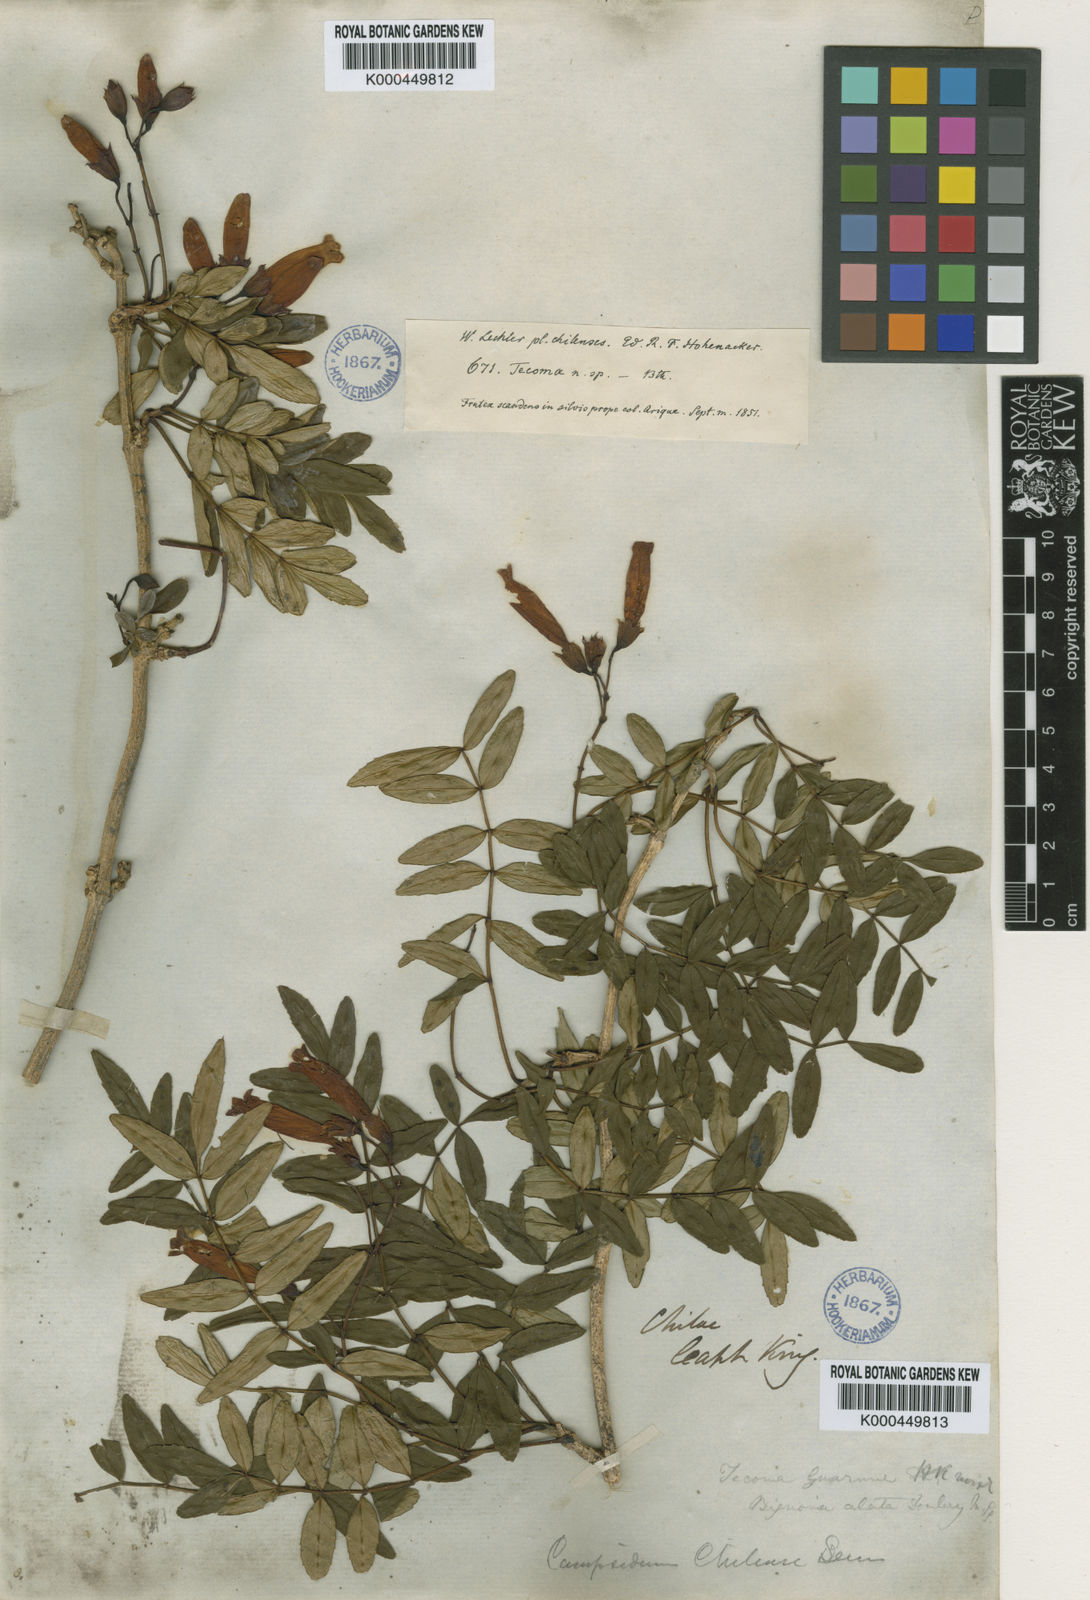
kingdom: Plantae
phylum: Tracheophyta
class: Magnoliopsida
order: Lamiales
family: Bignoniaceae
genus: Campsidium
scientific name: Campsidium valdivianum
